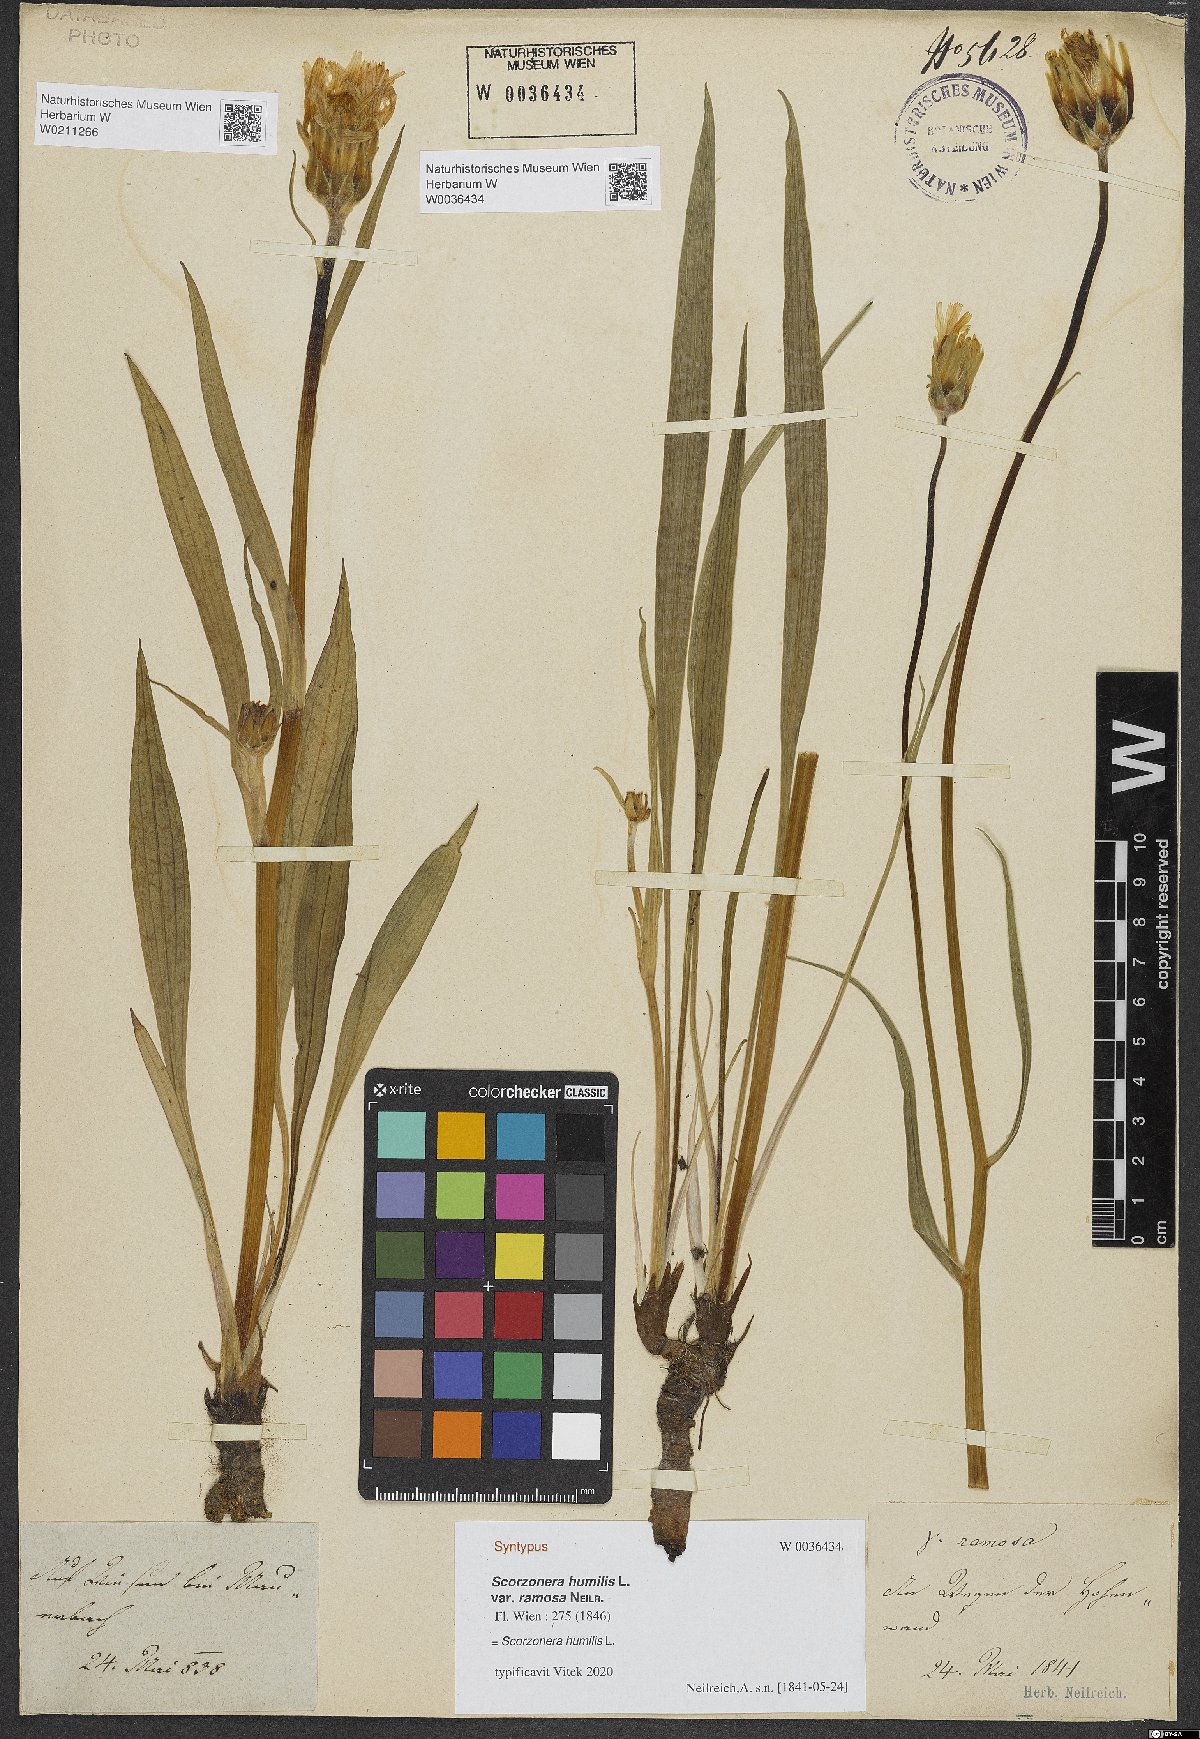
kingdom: Plantae
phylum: Tracheophyta
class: Magnoliopsida
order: Asterales
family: Asteraceae
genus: Scorzonera
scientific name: Scorzonera humilis
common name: Viper's-grass
